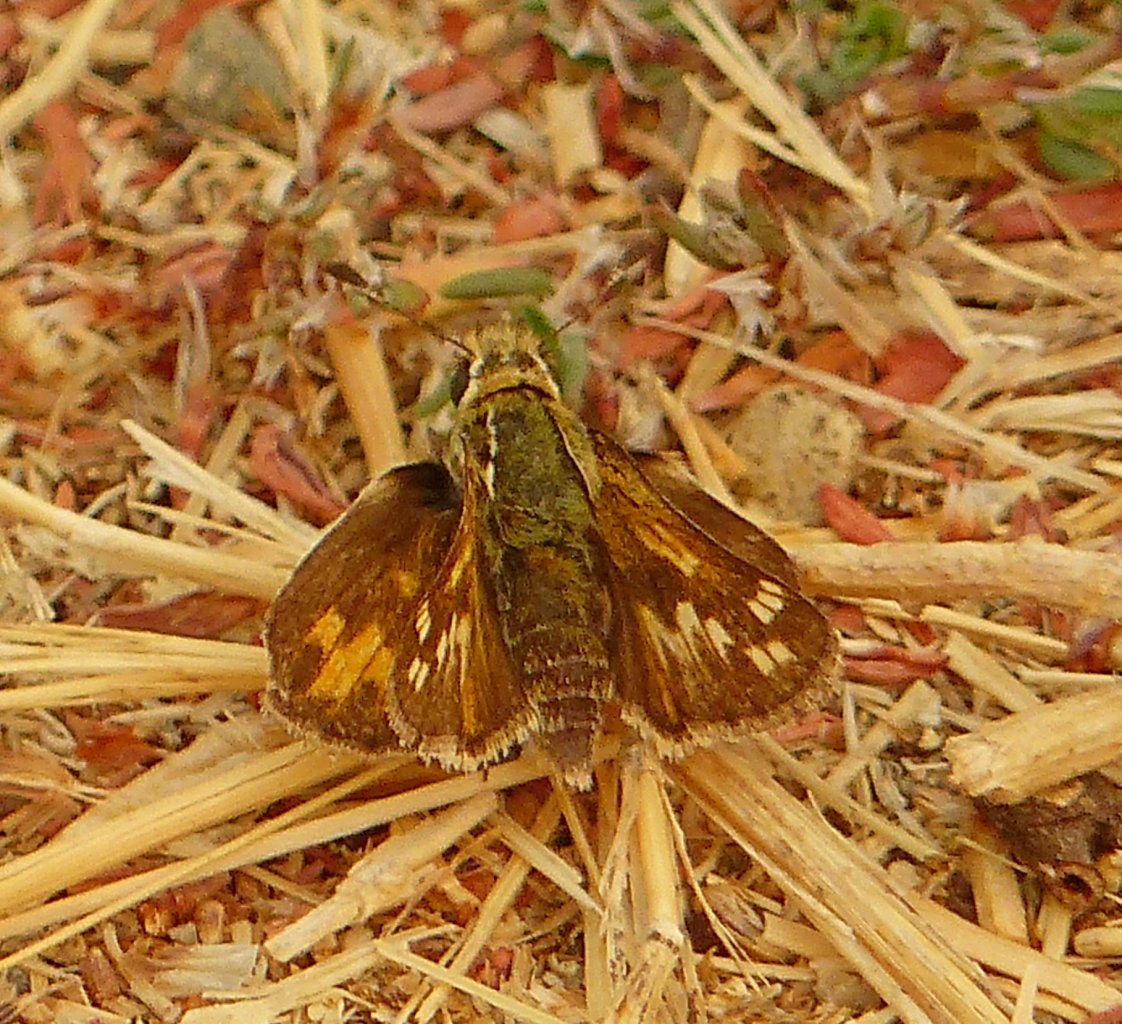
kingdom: Animalia
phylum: Arthropoda
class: Insecta
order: Lepidoptera
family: Hesperiidae
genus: Polites
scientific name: Polites sabuleti
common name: Sandhill Skipper
